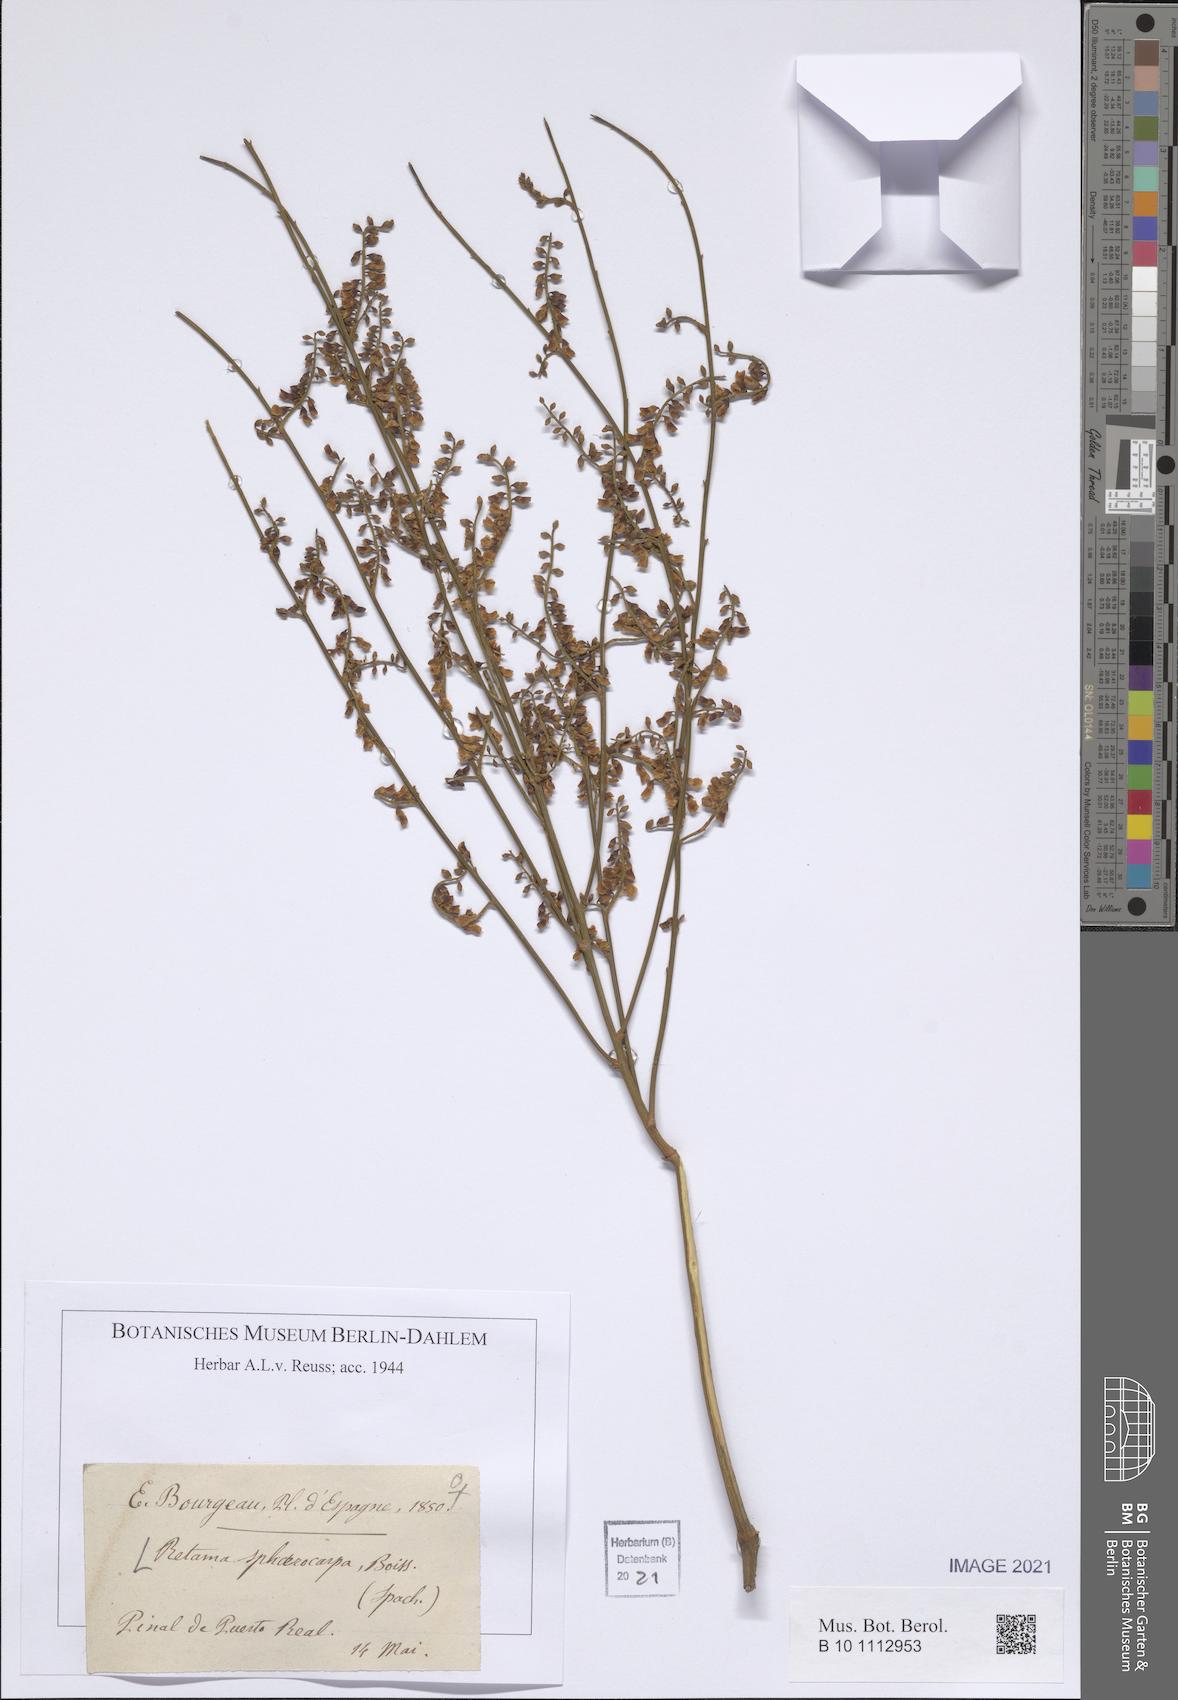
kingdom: Plantae
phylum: Tracheophyta
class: Magnoliopsida
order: Fabales
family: Fabaceae
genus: Retama
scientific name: Retama sphaerocarpa
